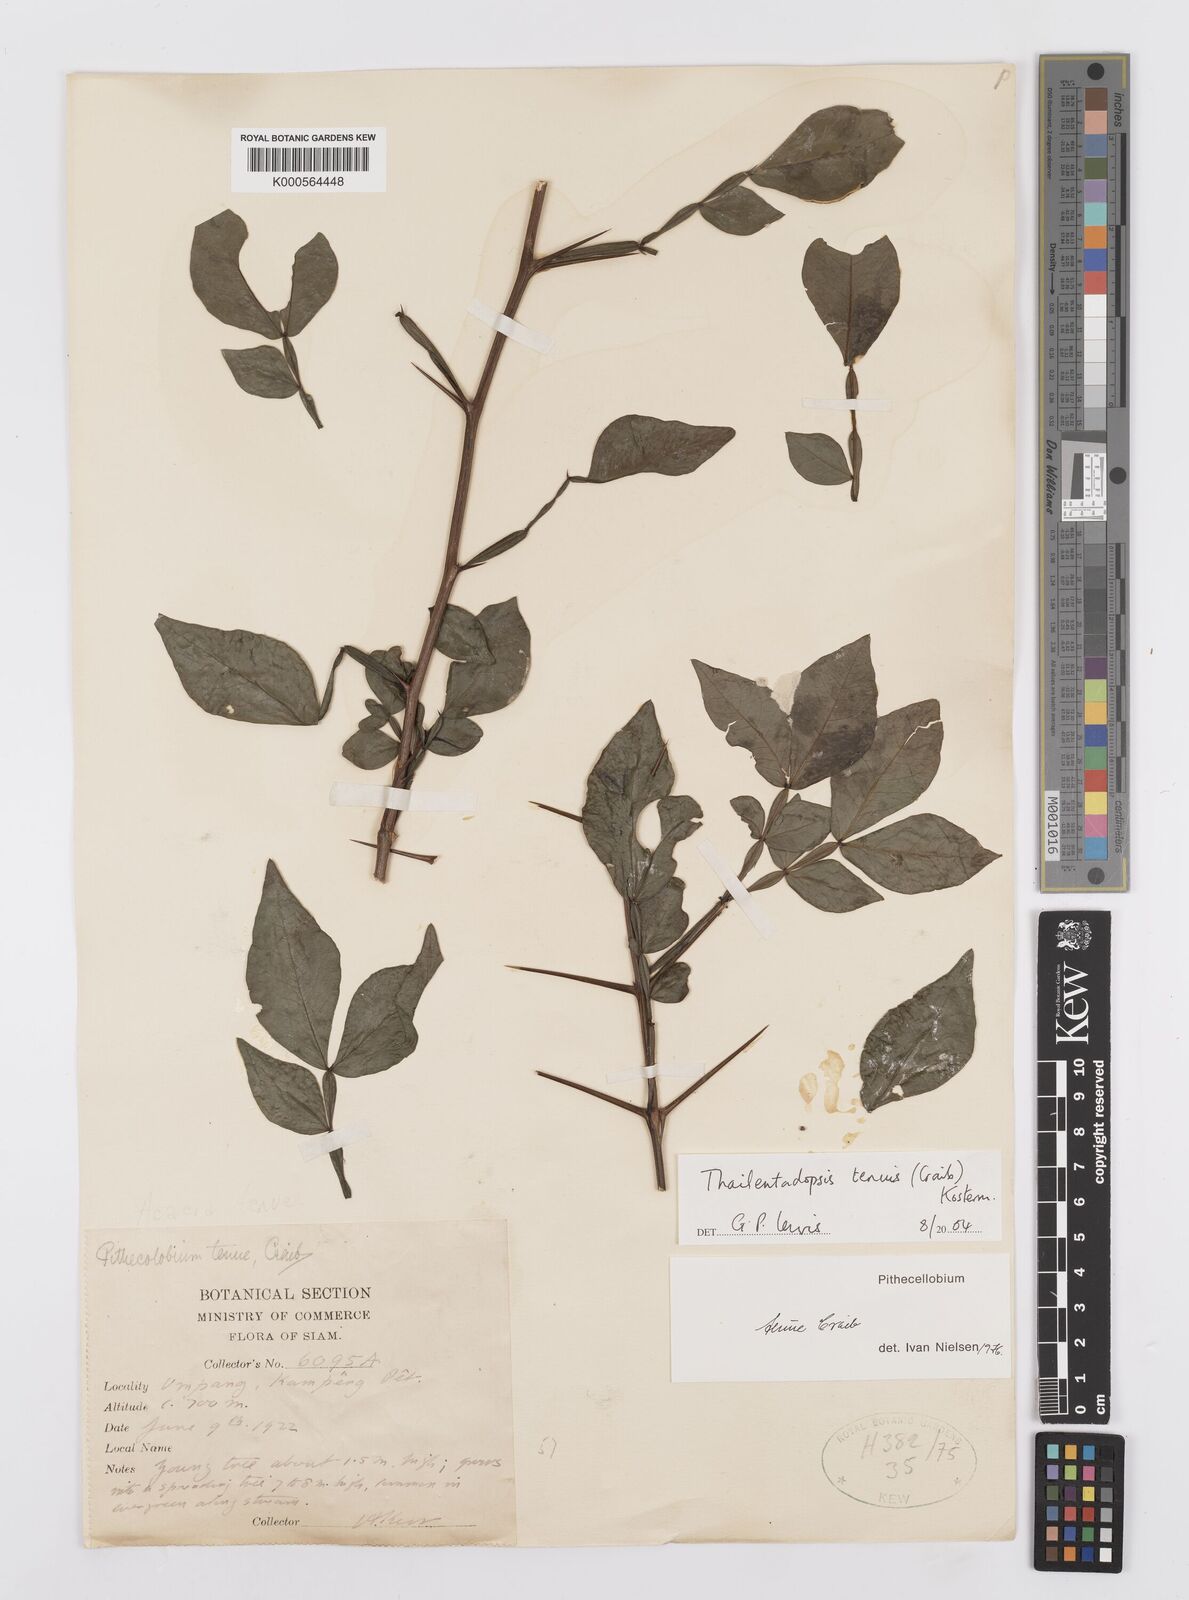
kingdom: Plantae
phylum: Tracheophyta
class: Magnoliopsida
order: Fabales
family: Fabaceae
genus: Thailentadopsis
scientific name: Thailentadopsis tenuis
